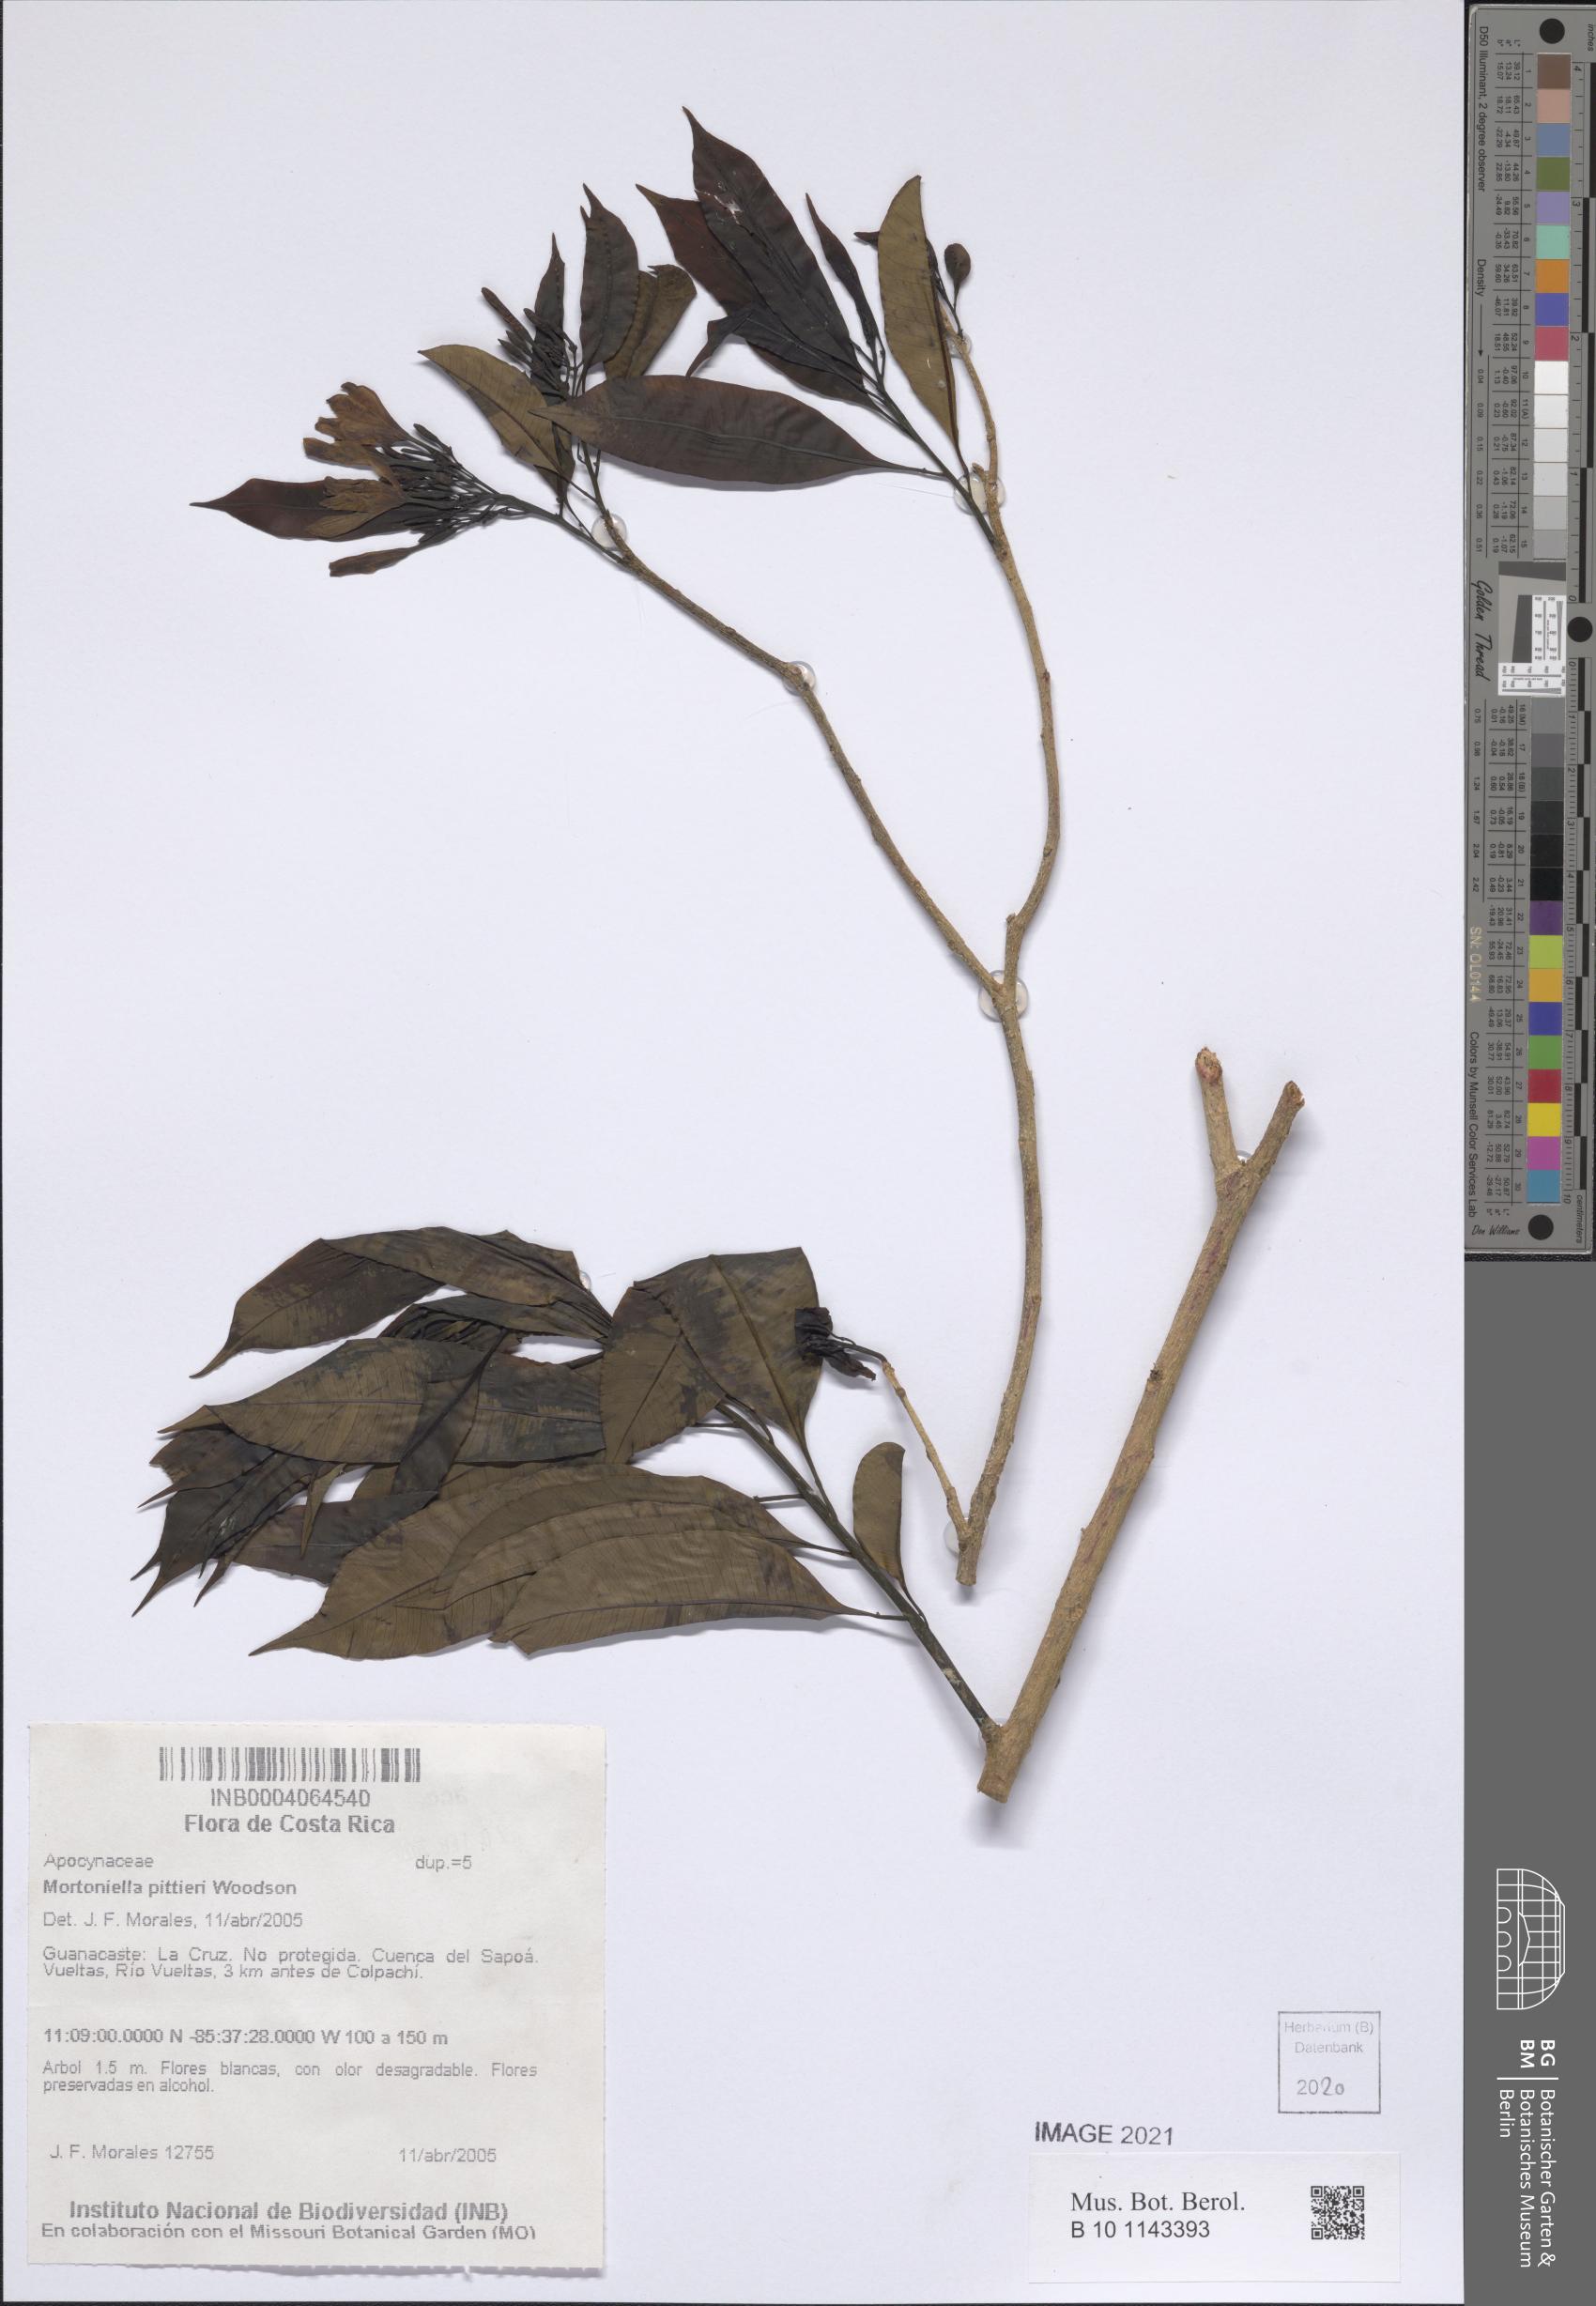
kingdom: Plantae
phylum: Tracheophyta
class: Magnoliopsida
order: Gentianales
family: Apocynaceae
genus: Mortoniella
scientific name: Mortoniella pittieri
